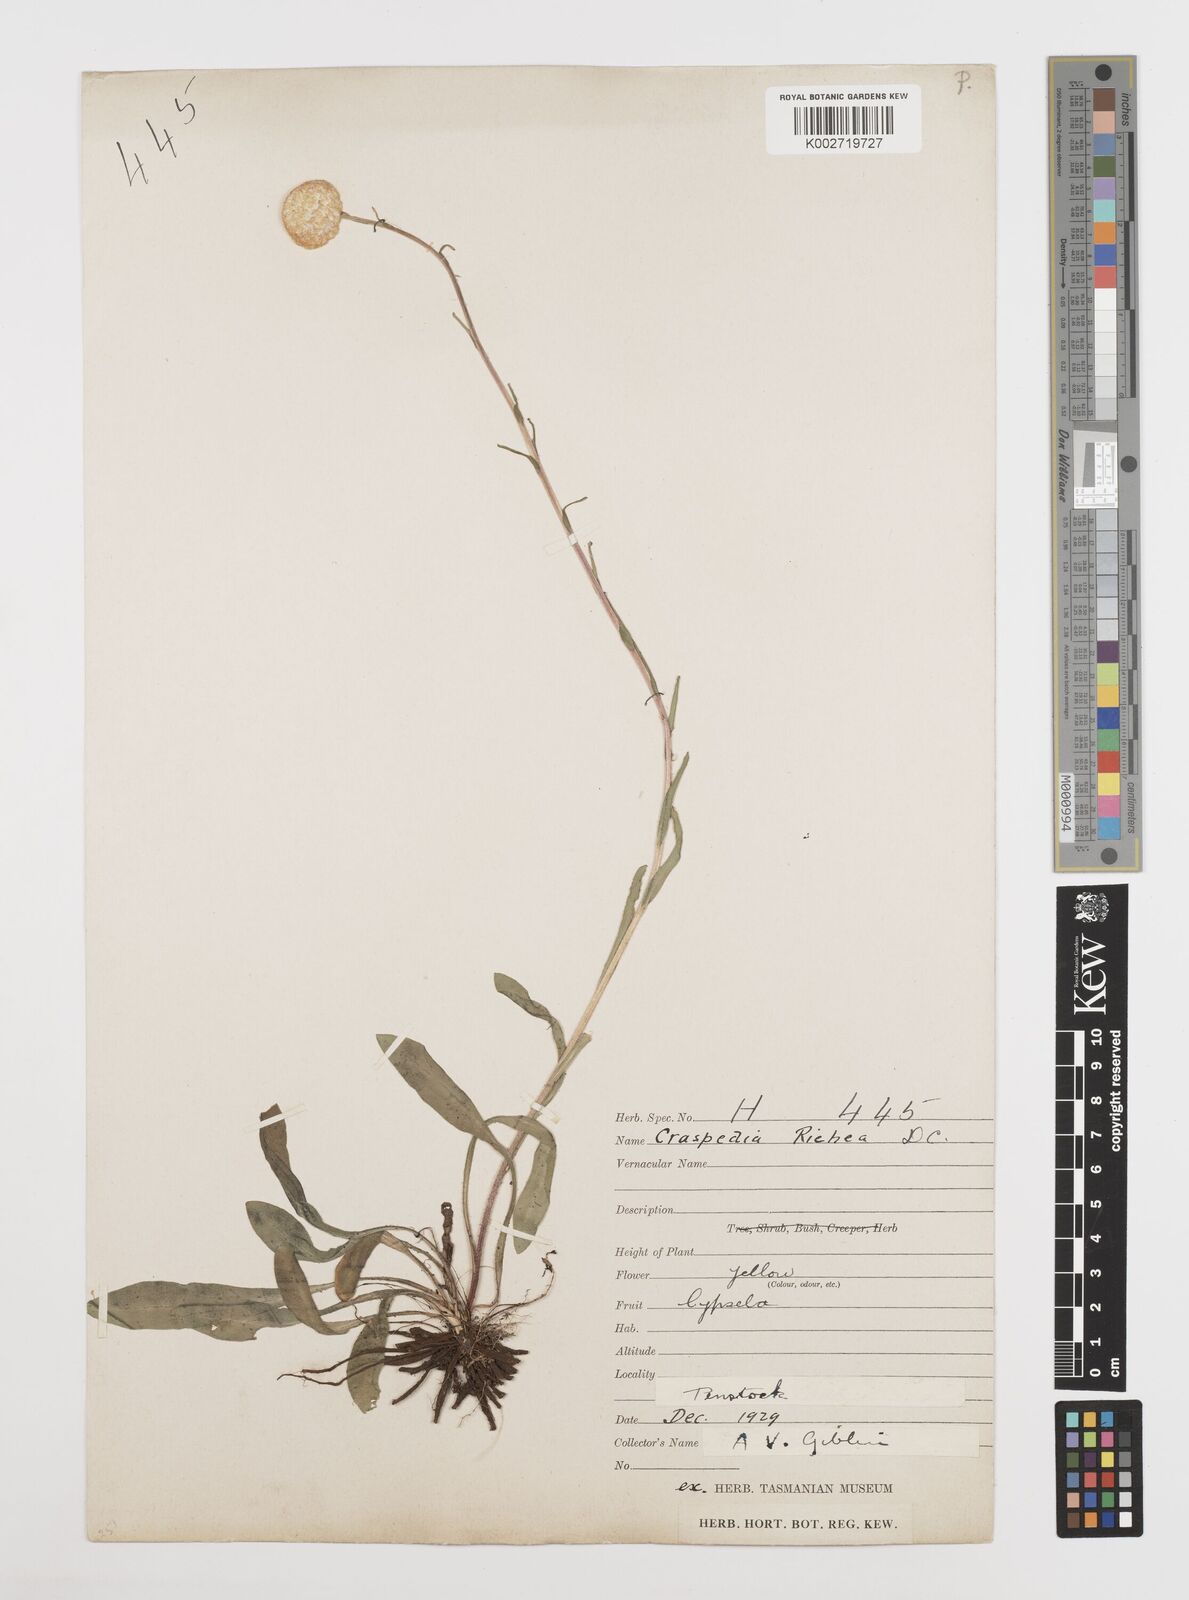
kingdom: Plantae
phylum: Tracheophyta
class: Magnoliopsida
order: Asterales
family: Asteraceae
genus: Craspedia
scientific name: Craspedia glauca
